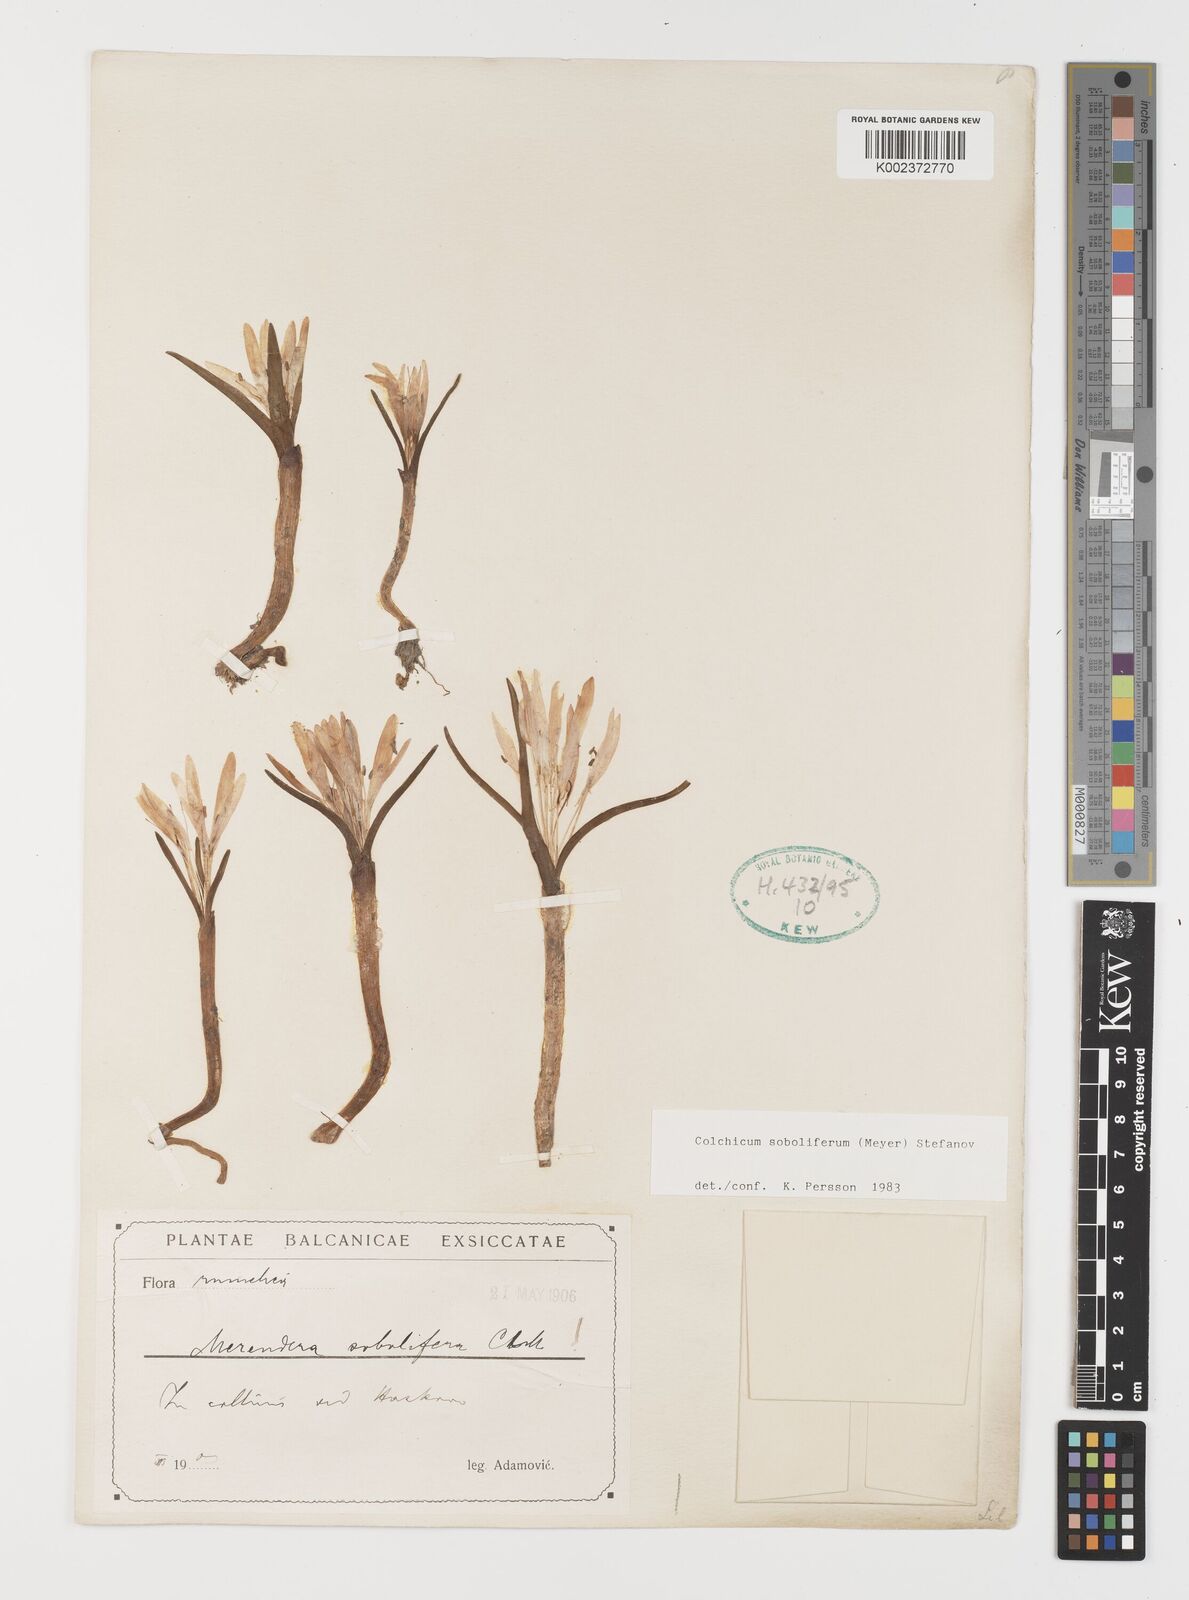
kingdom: Plantae
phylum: Tracheophyta
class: Liliopsida
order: Liliales
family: Colchicaceae
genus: Colchicum
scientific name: Colchicum soboliferum
